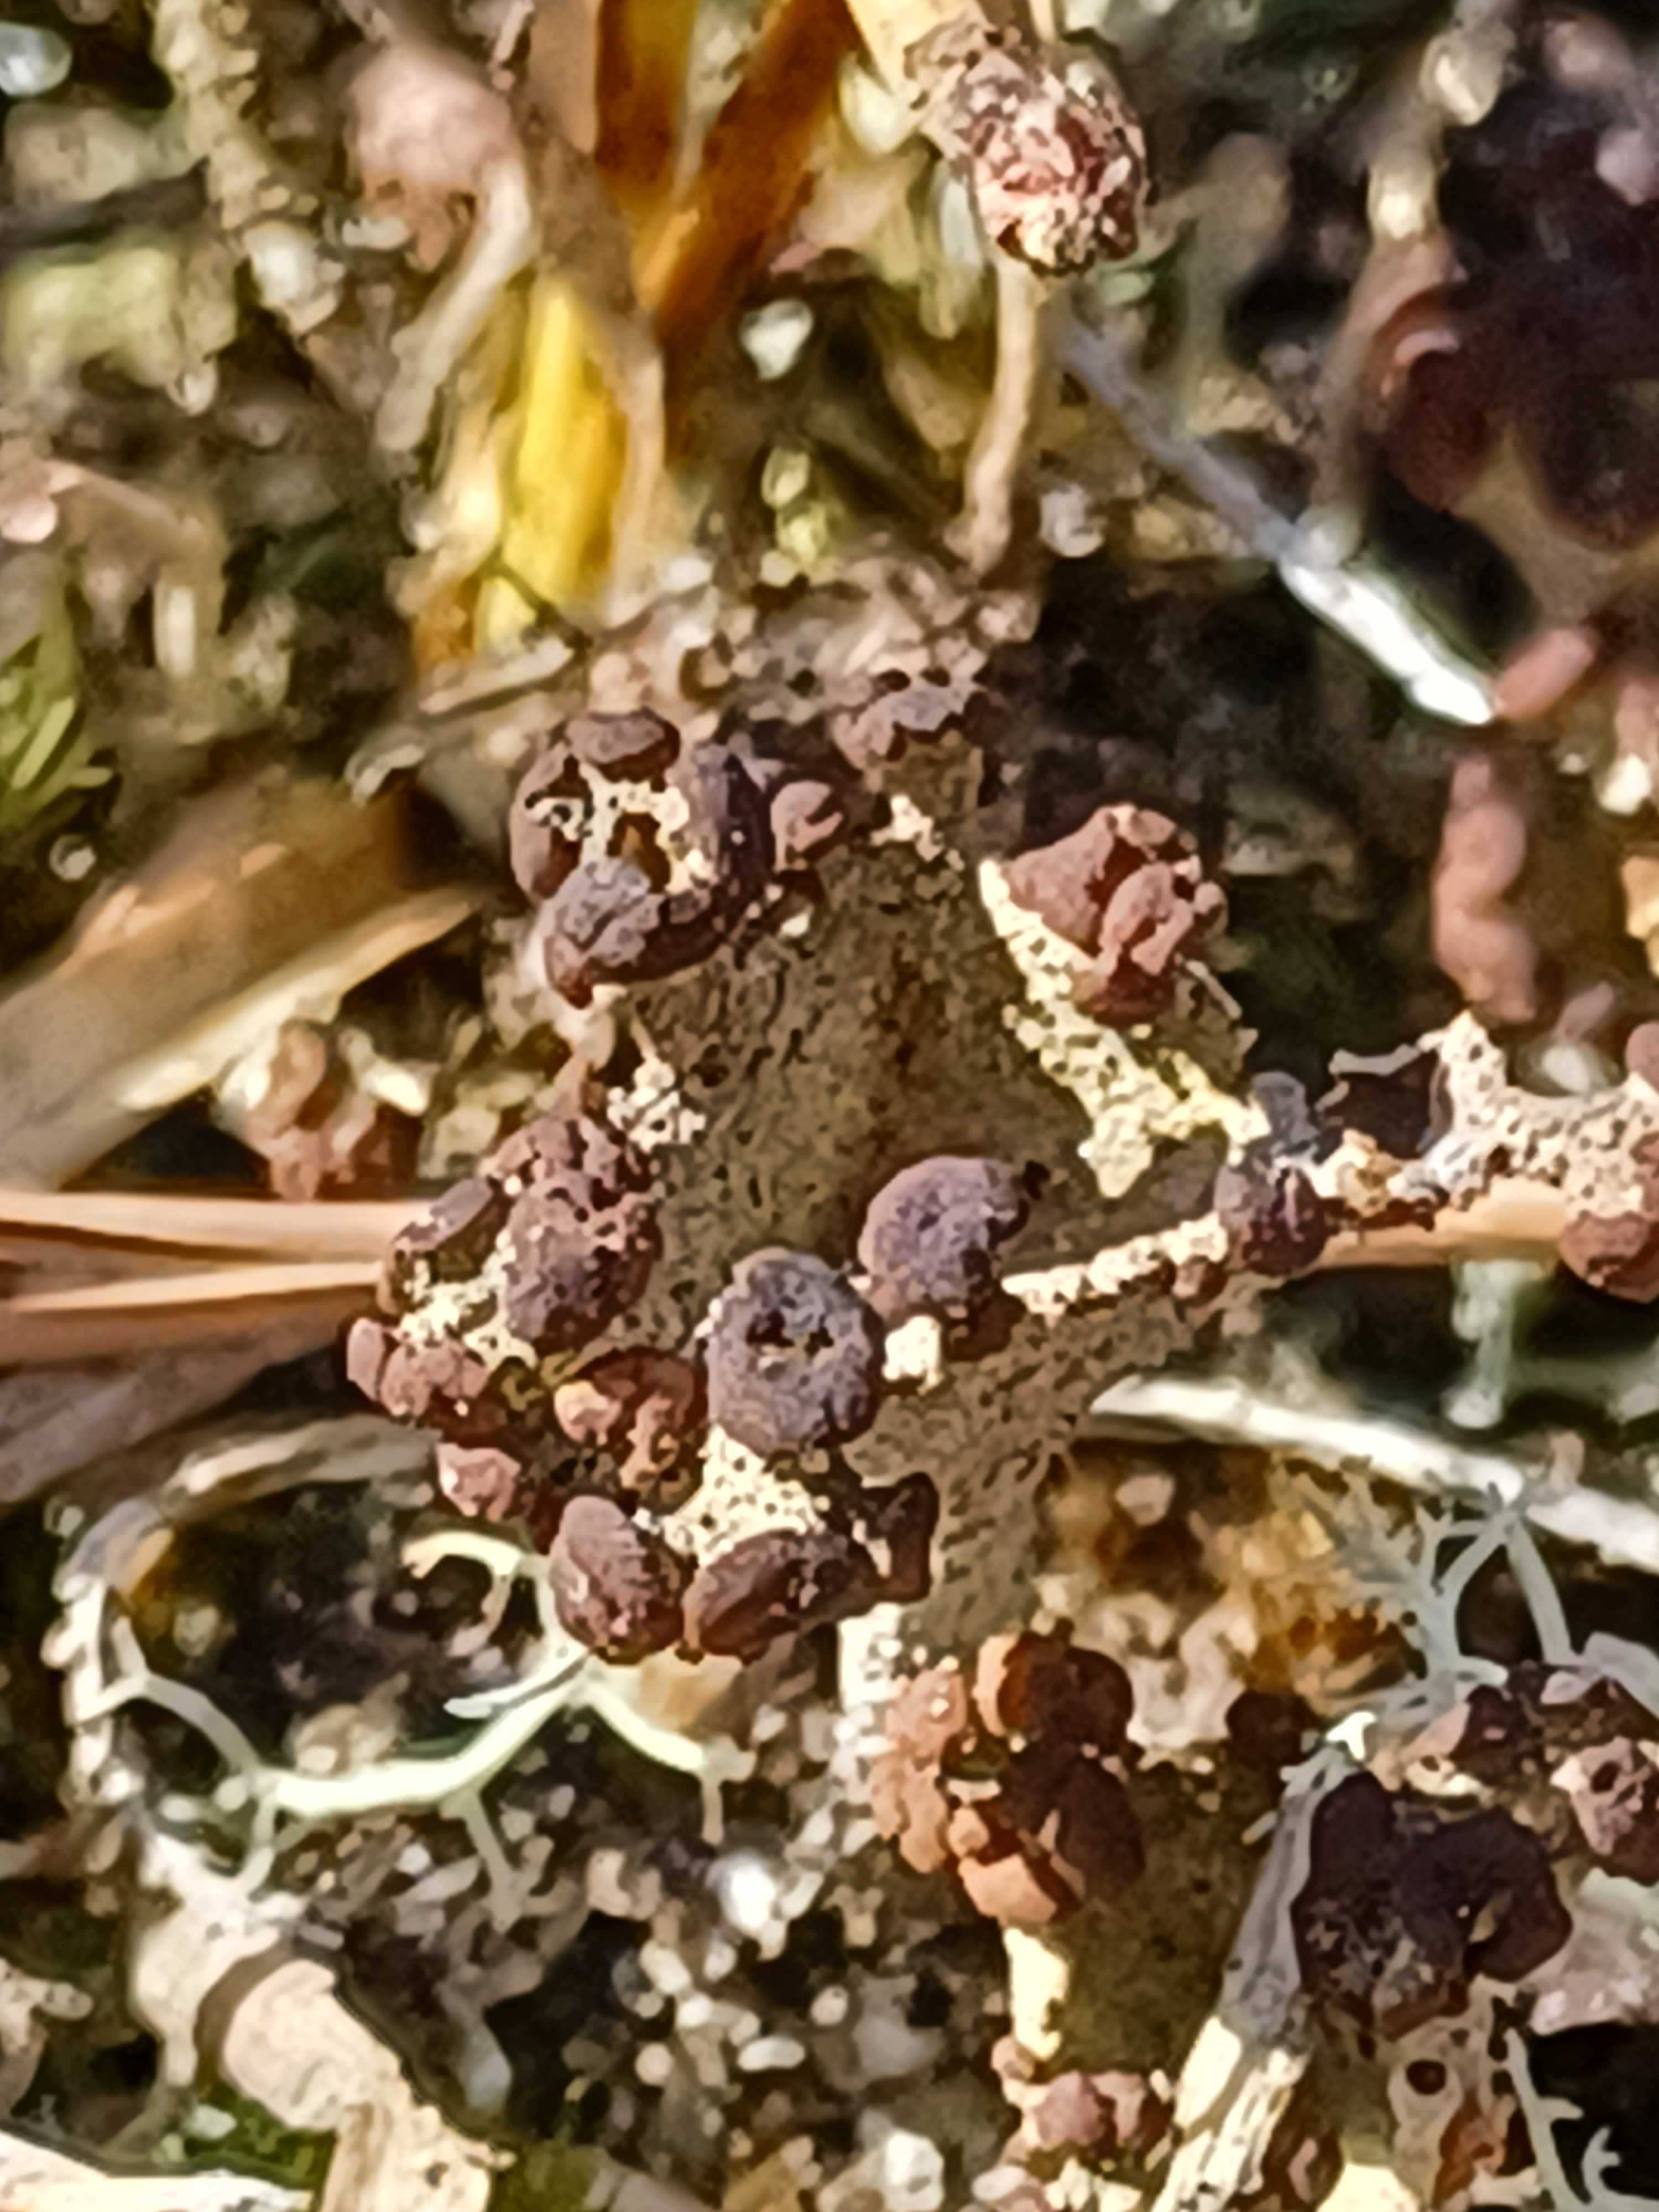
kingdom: Fungi
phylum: Ascomycota
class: Lecanoromycetes
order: Lecanorales
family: Cladoniaceae
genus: Cladonia
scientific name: Cladonia
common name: brungrøn bægerlav
